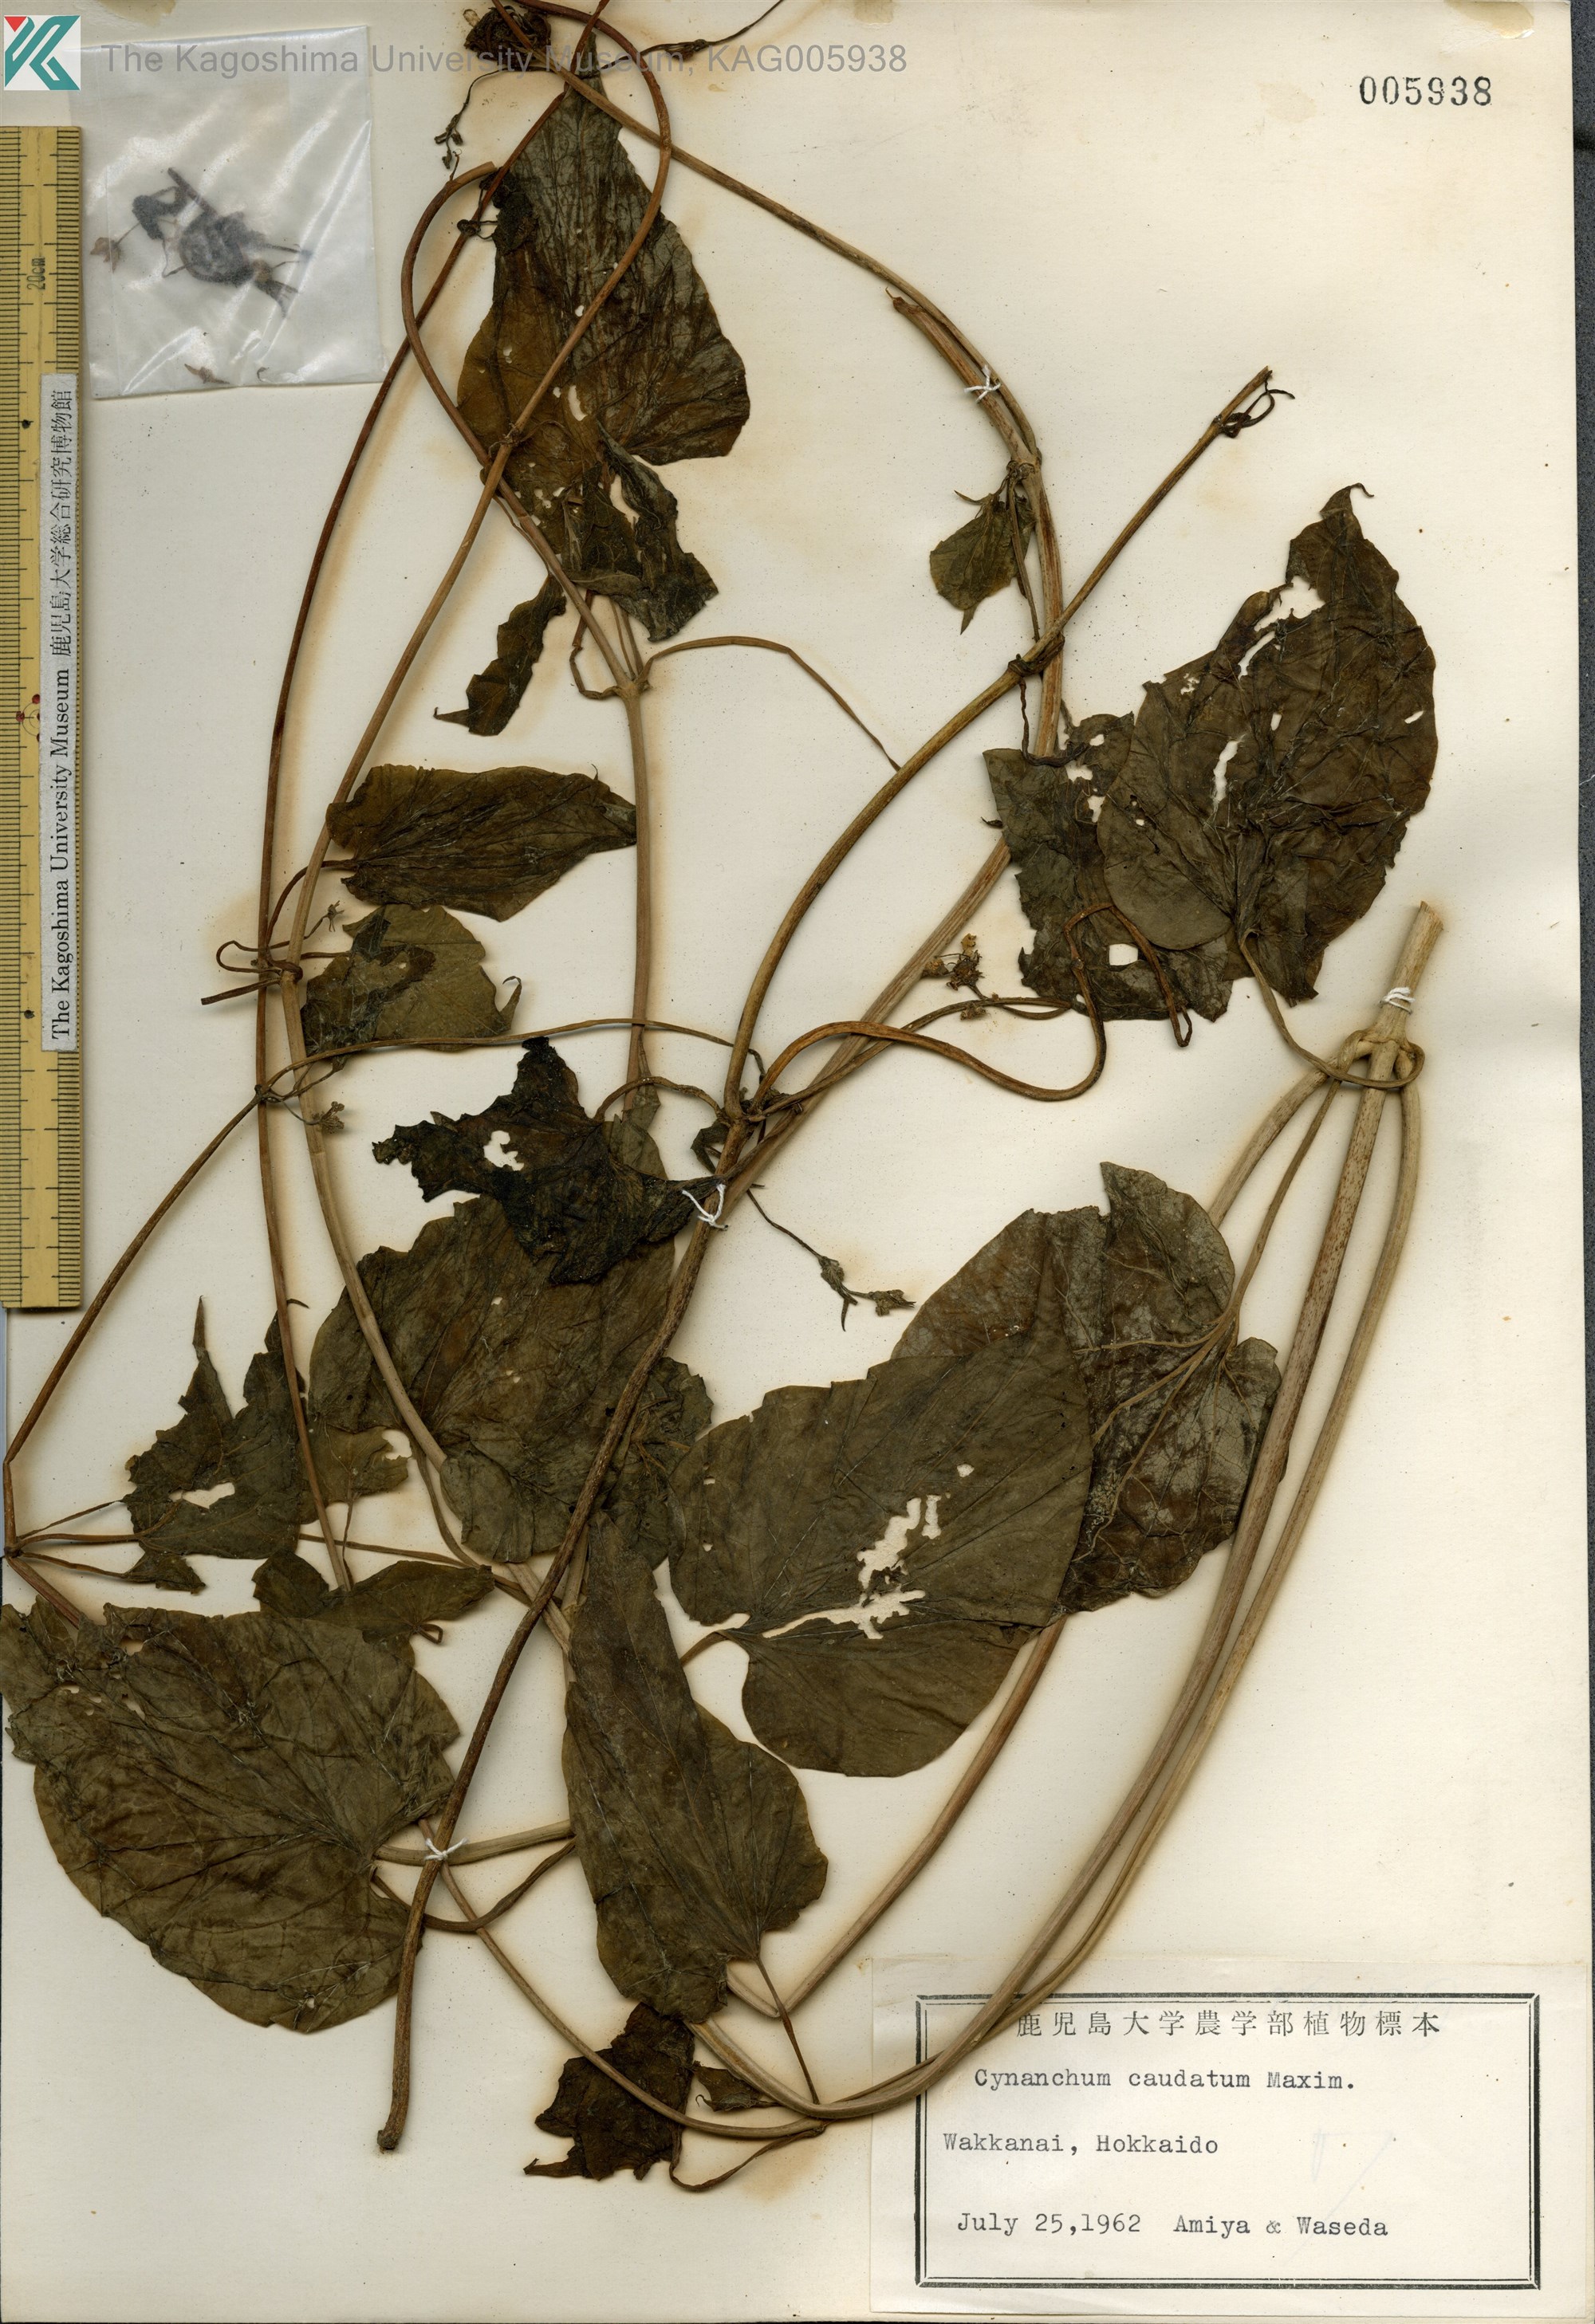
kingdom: Plantae
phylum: Tracheophyta
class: Magnoliopsida
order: Gentianales
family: Apocynaceae
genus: Orthosia
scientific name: Orthosia virgata
